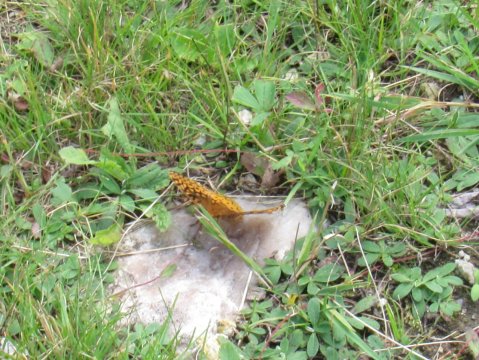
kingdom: Animalia
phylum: Arthropoda
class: Insecta
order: Lepidoptera
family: Nymphalidae
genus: Speyeria
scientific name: Speyeria cybele
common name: Great Spangled Fritillary
